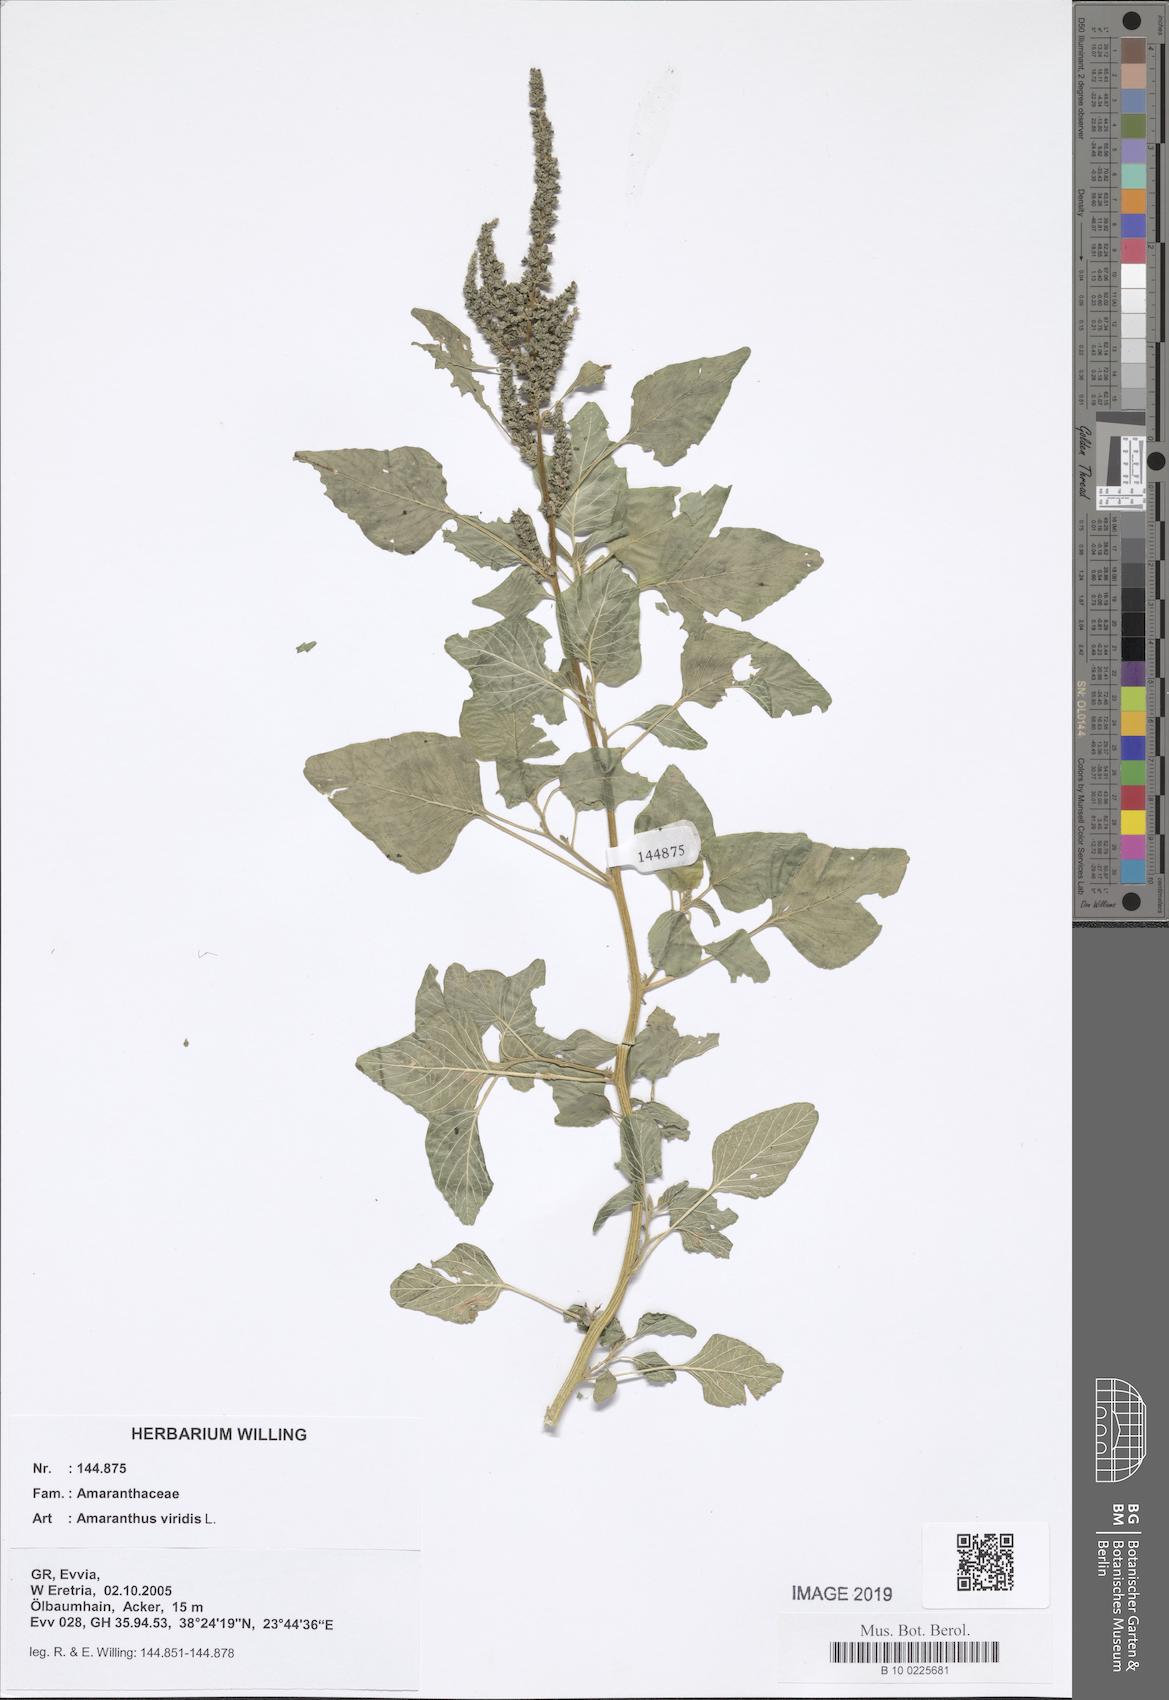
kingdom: Plantae
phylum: Tracheophyta
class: Magnoliopsida
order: Caryophyllales
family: Amaranthaceae
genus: Amaranthus
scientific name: Amaranthus viridis
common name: Slender amaranth
